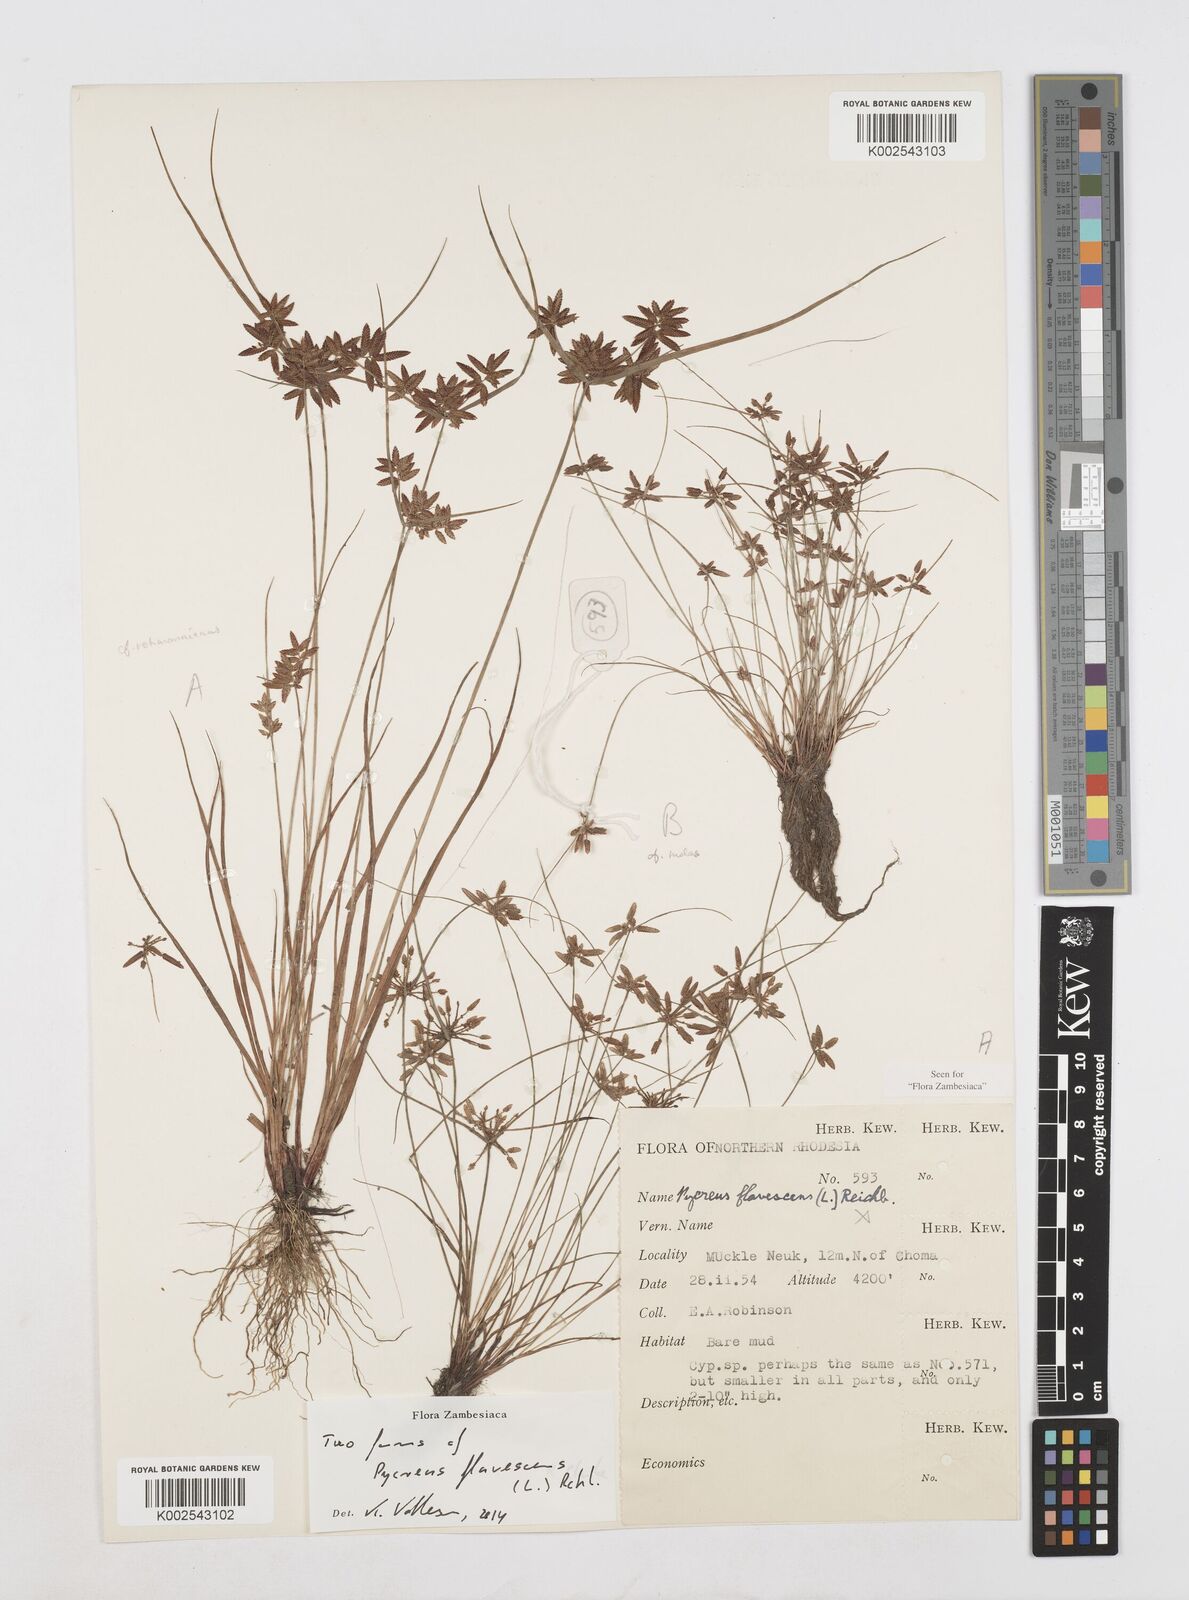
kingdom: Plantae
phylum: Tracheophyta
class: Liliopsida
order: Poales
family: Cyperaceae
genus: Cyperus
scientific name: Cyperus flavescens
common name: Yellow galingale
